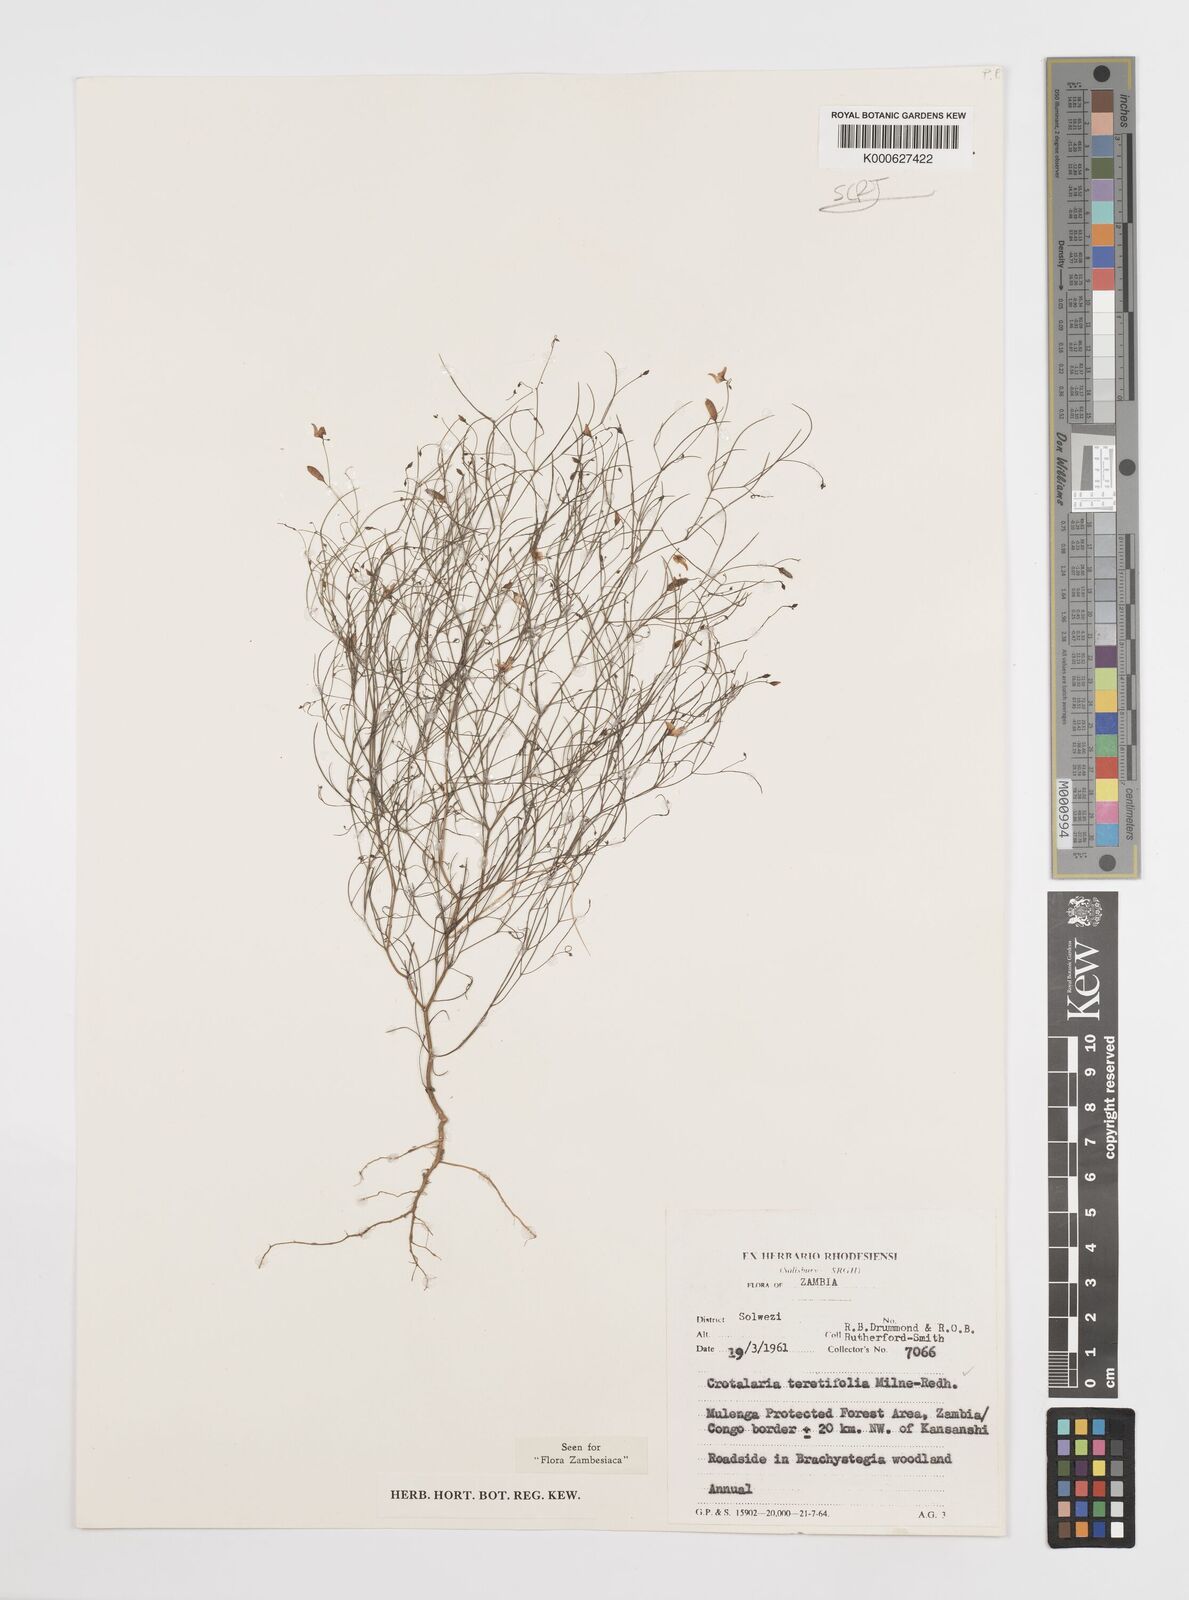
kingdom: Plantae
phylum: Tracheophyta
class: Magnoliopsida
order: Fabales
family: Fabaceae
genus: Crotalaria
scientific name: Crotalaria teretifolia
